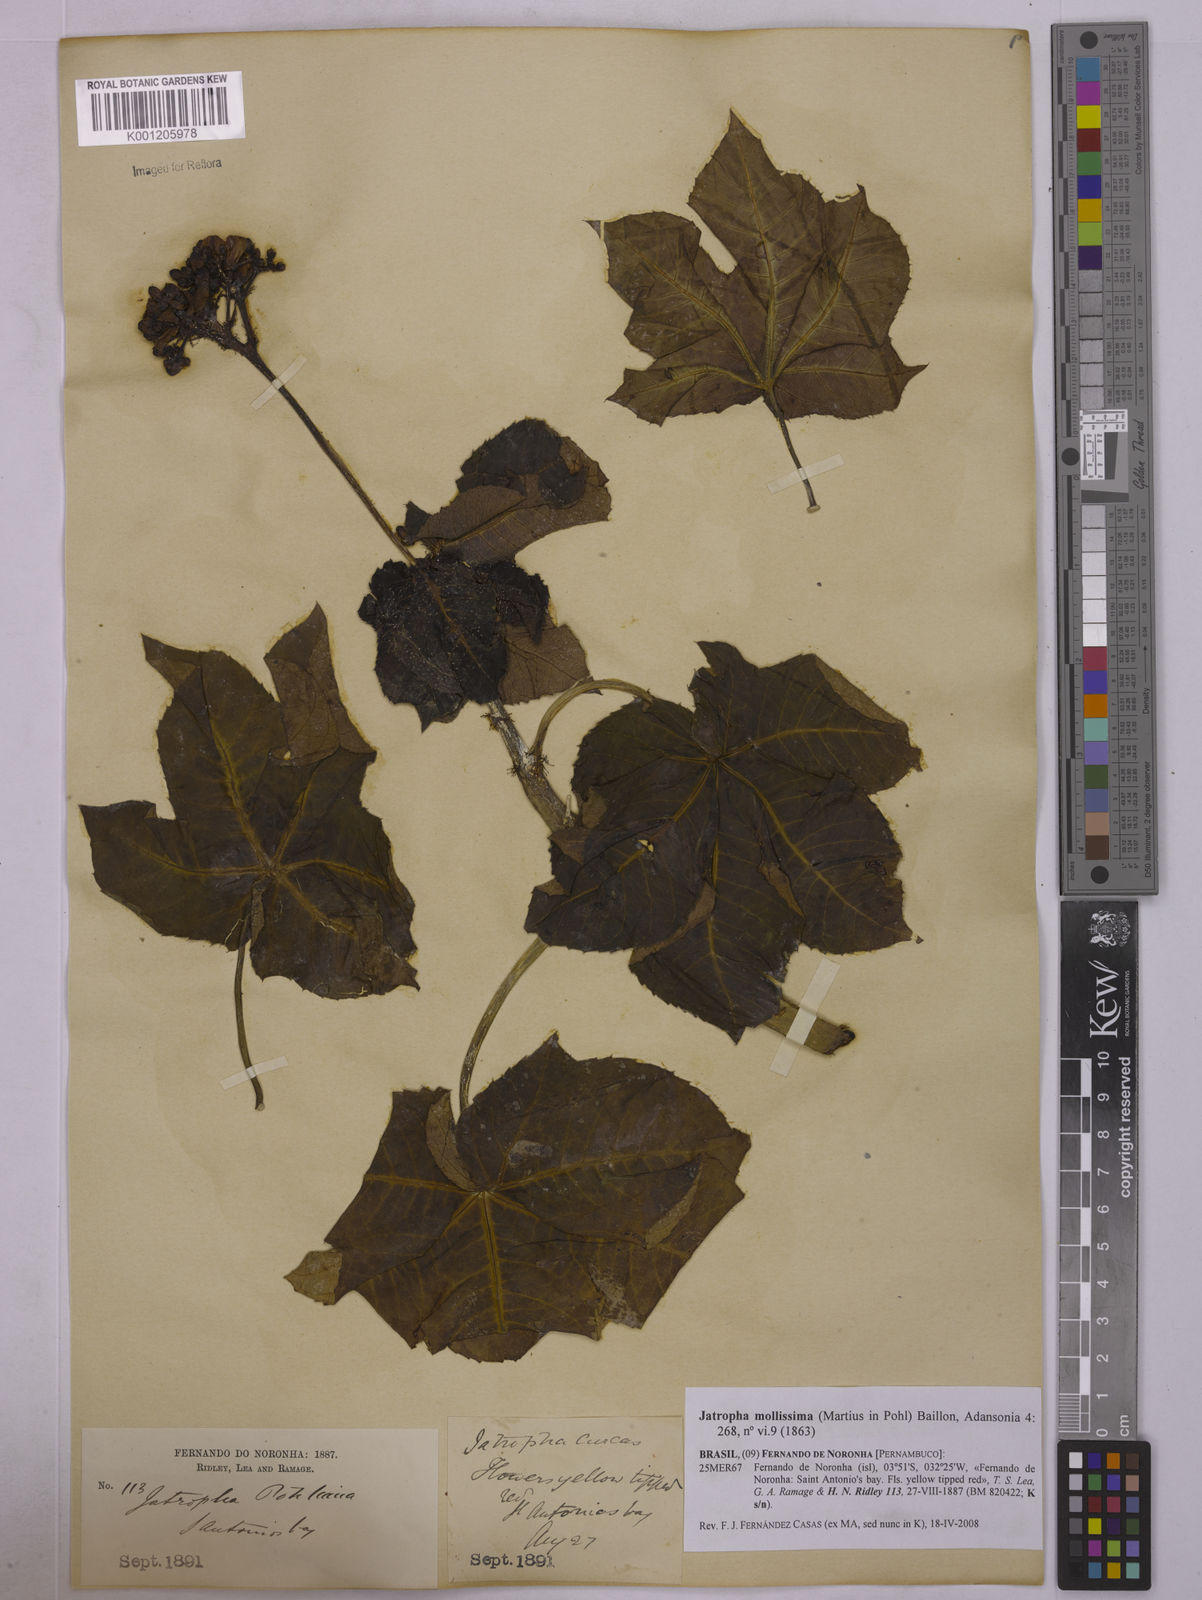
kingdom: Plantae
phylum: Tracheophyta
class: Magnoliopsida
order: Malpighiales
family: Euphorbiaceae
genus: Jatropha
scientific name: Jatropha mollissima
